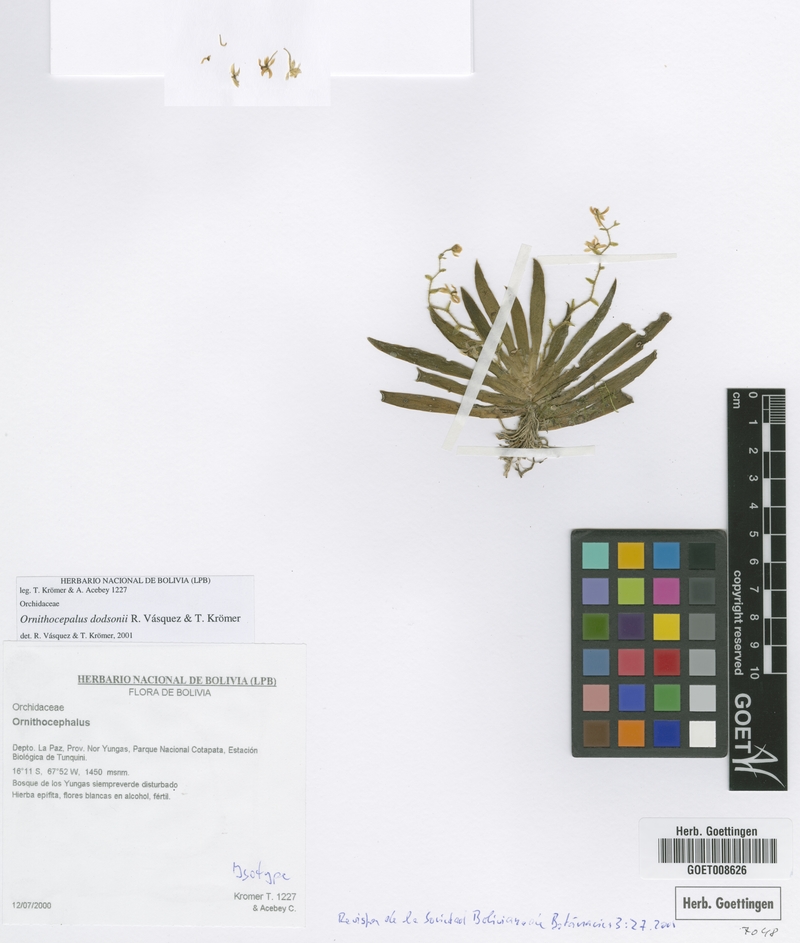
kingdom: Plantae
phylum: Tracheophyta
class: Liliopsida
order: Asparagales
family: Orchidaceae
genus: Ornithocephalus
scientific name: Ornithocephalus dodsonii
